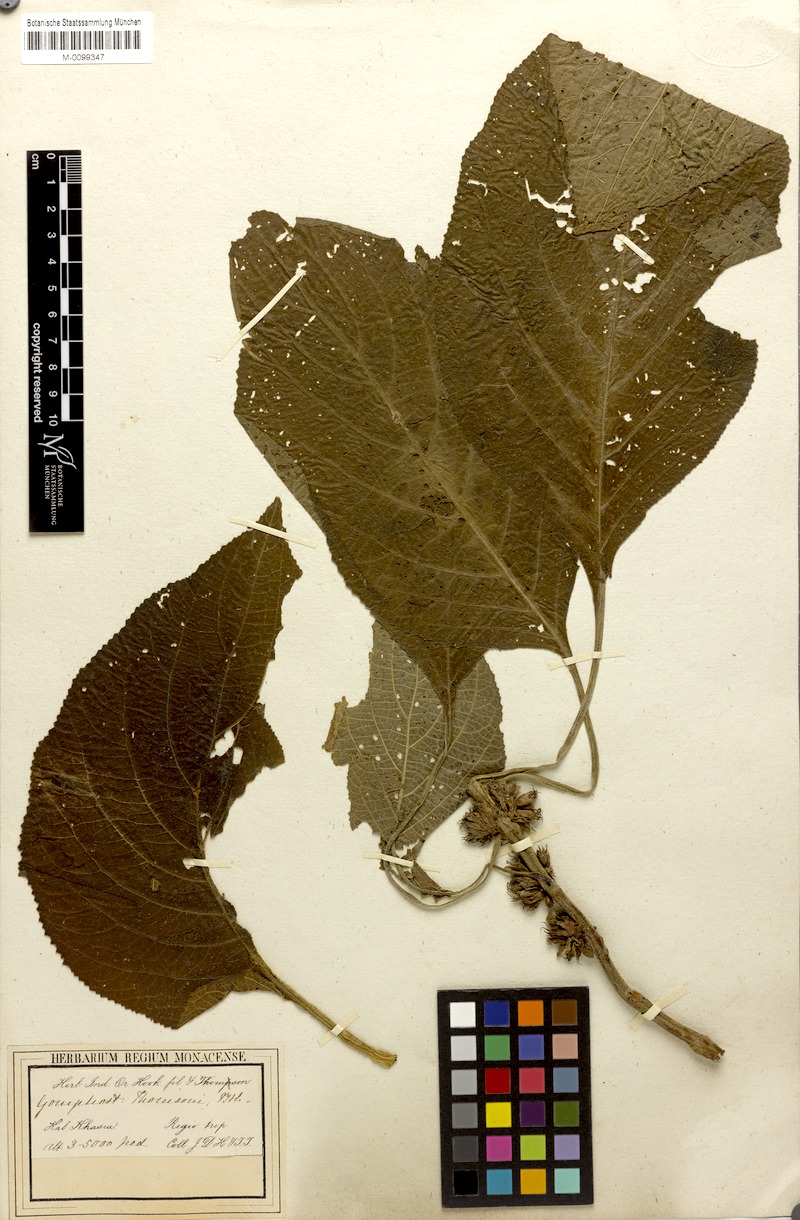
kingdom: Plantae
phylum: Tracheophyta
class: Magnoliopsida
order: Lamiales
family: Lamiaceae
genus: Gomphostemma
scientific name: Gomphostemma thomsonii
